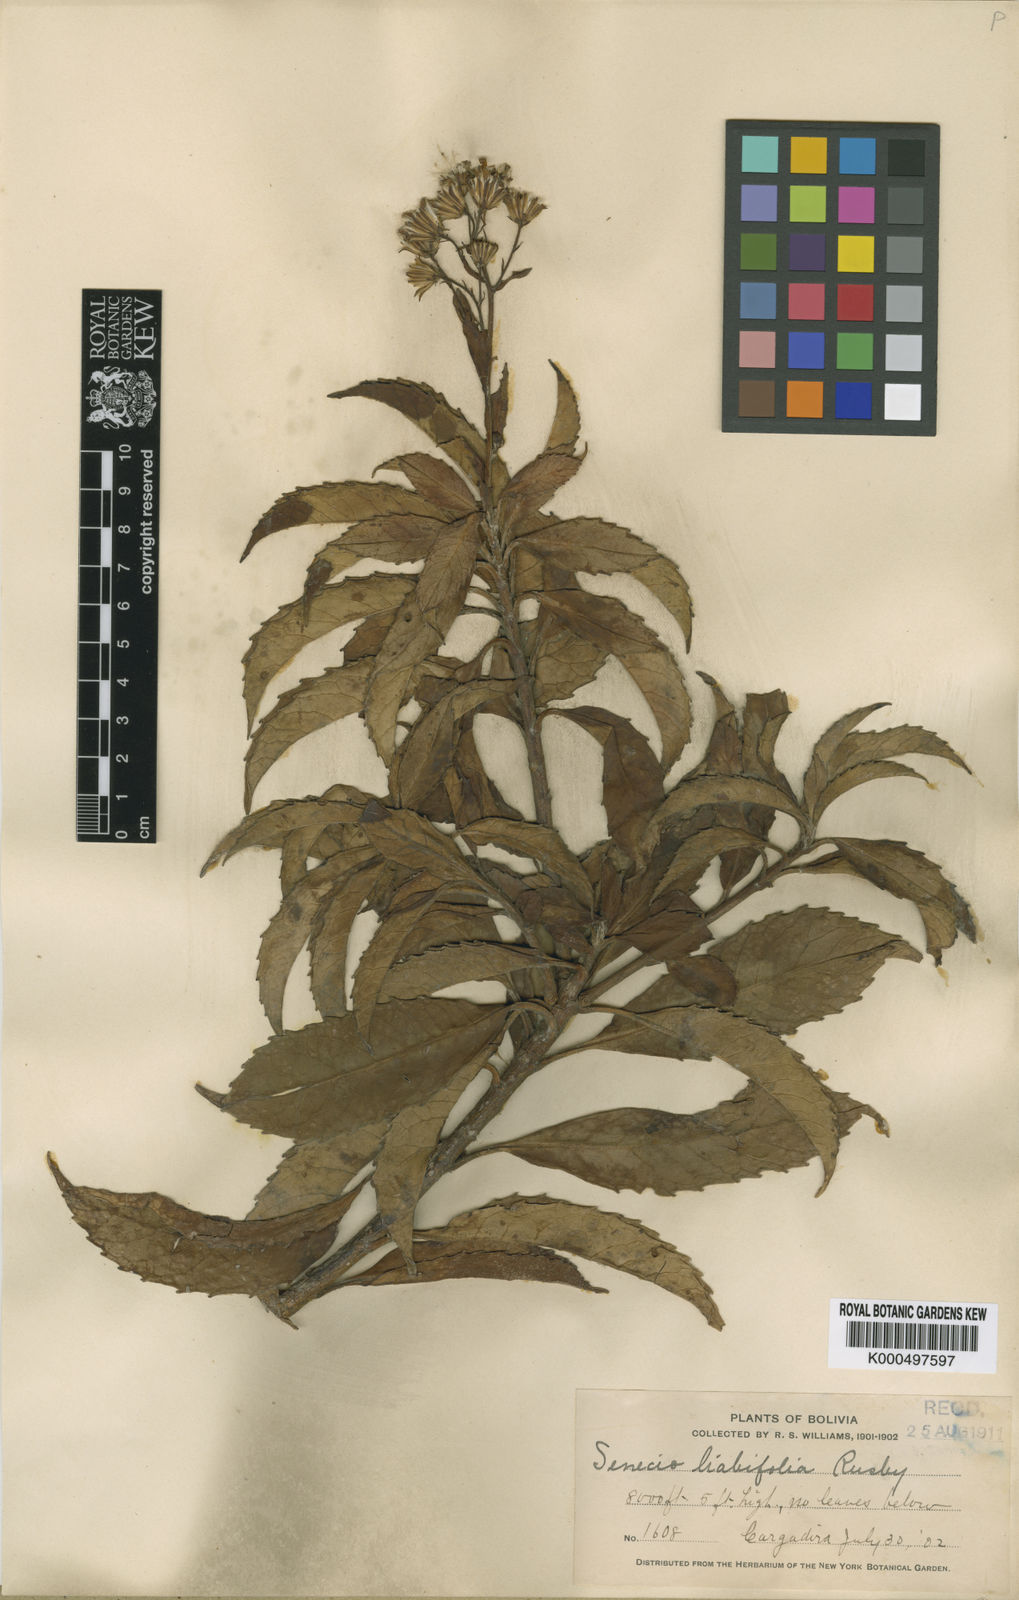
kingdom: Plantae
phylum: Tracheophyta
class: Magnoliopsida
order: Asterales
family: Asteraceae
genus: Dendrophorbium
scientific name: Dendrophorbium curvidens
